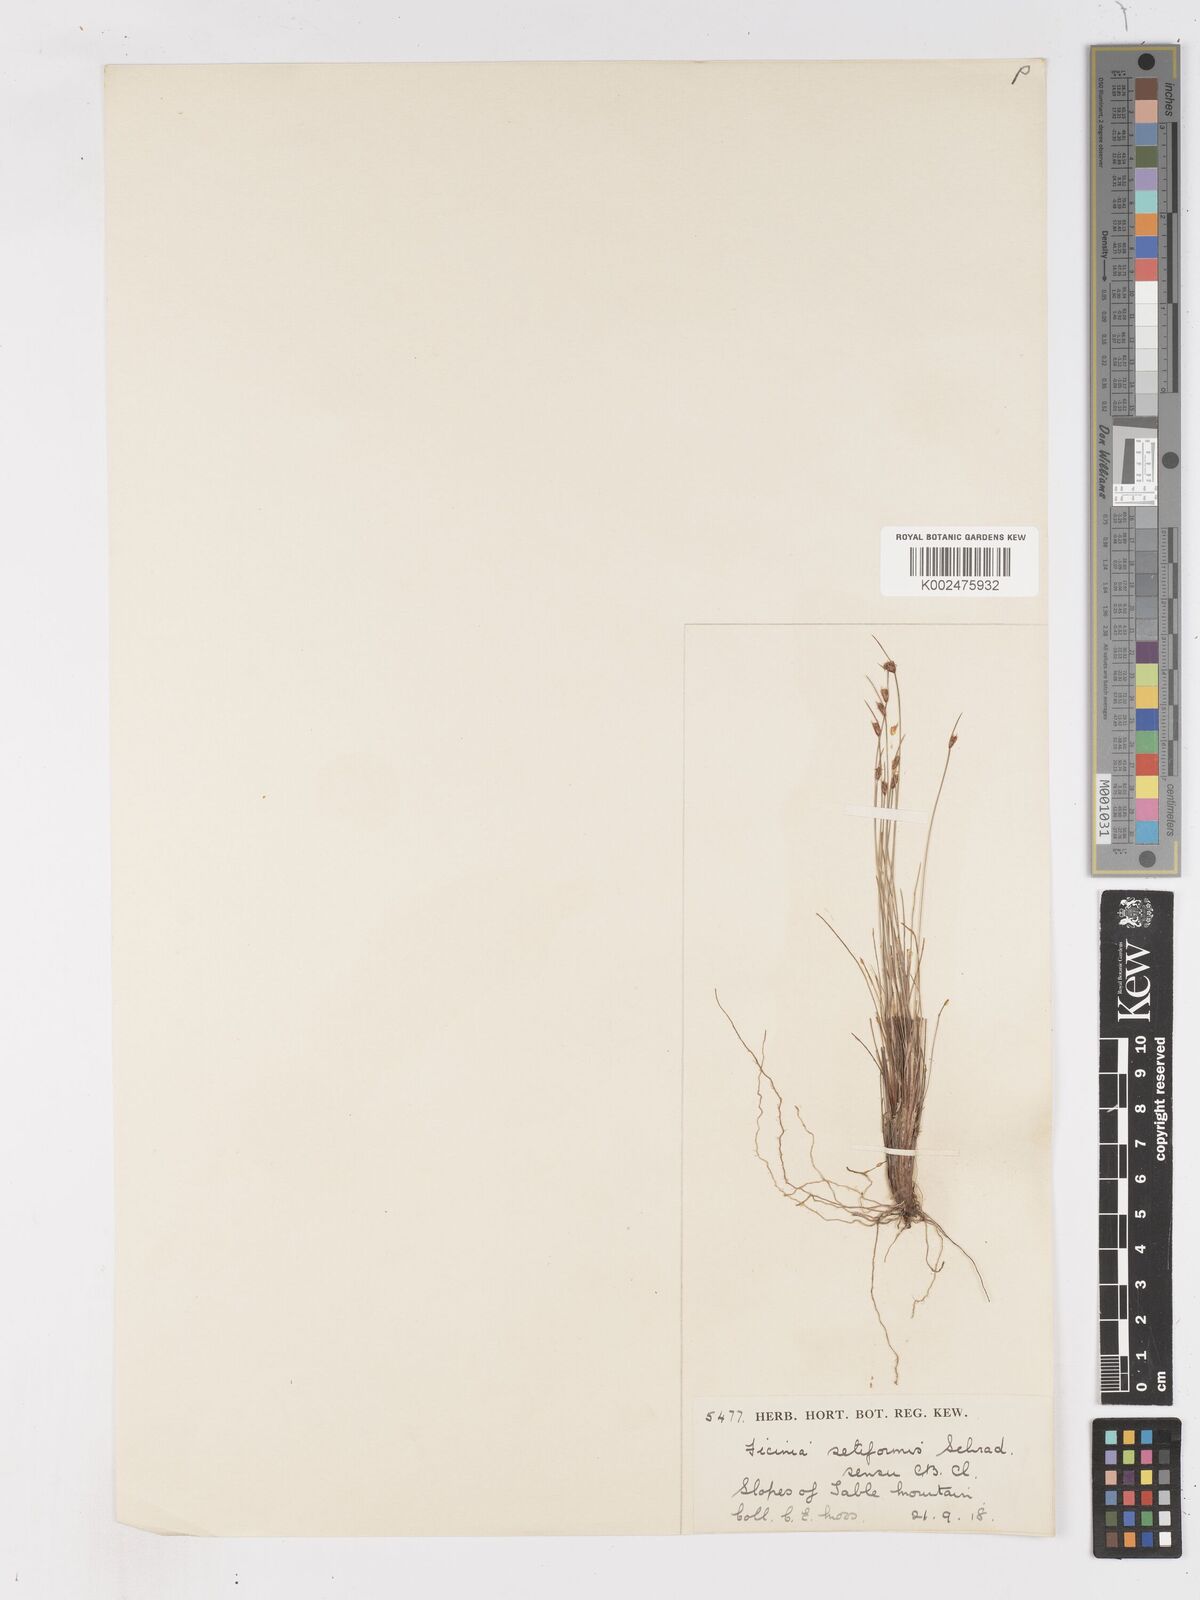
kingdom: Plantae
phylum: Tracheophyta
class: Liliopsida
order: Poales
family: Cyperaceae
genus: Ficinia
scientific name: Ficinia dunensis
